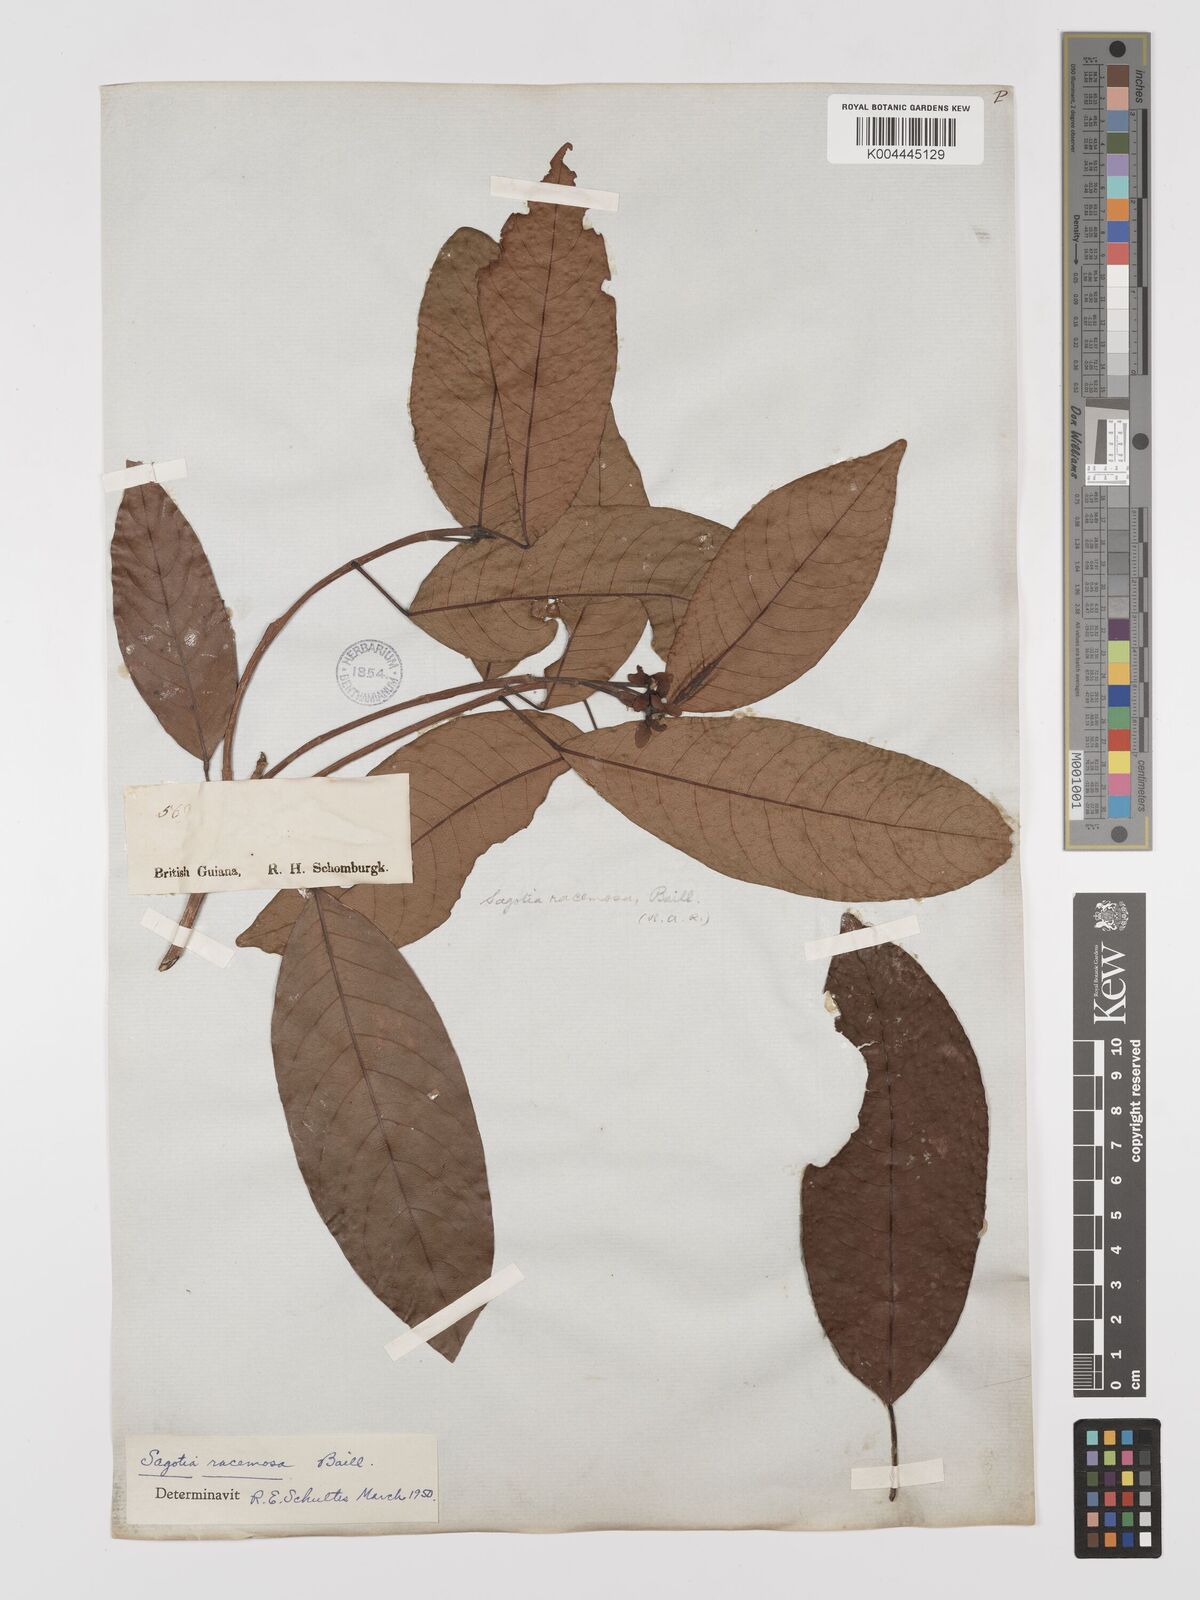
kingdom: Plantae
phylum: Tracheophyta
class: Magnoliopsida
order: Malpighiales
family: Euphorbiaceae
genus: Sagotia
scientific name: Sagotia racemosa
